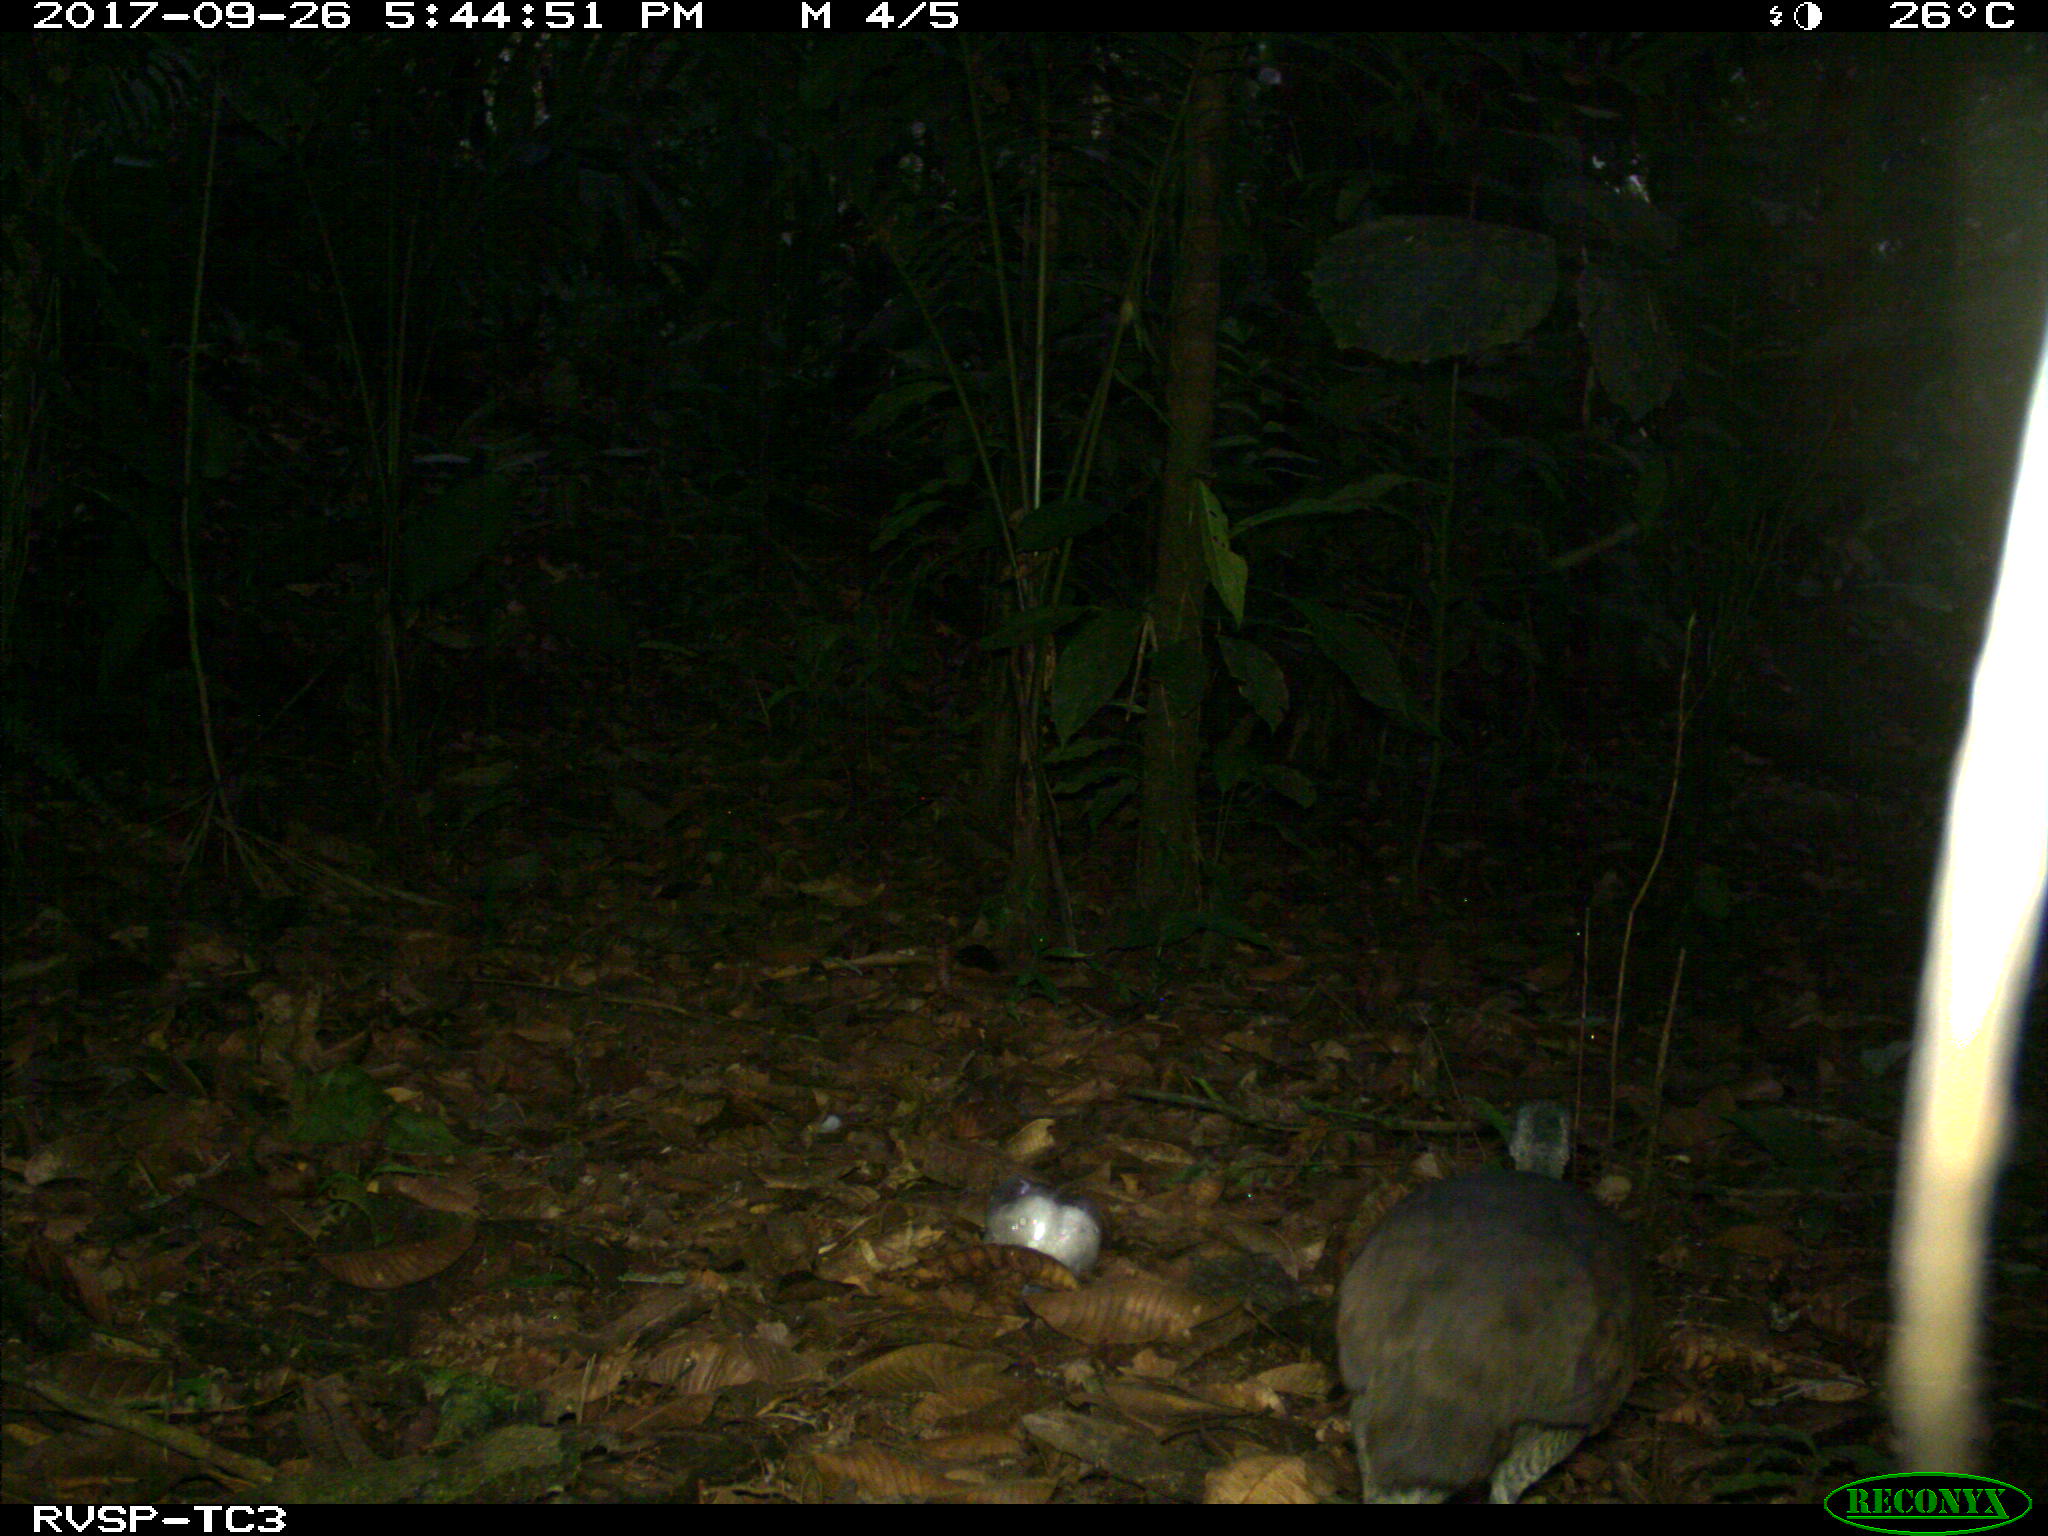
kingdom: Animalia
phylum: Chordata
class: Aves
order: Galliformes
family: Cracidae
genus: Ortalis
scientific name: Ortalis
